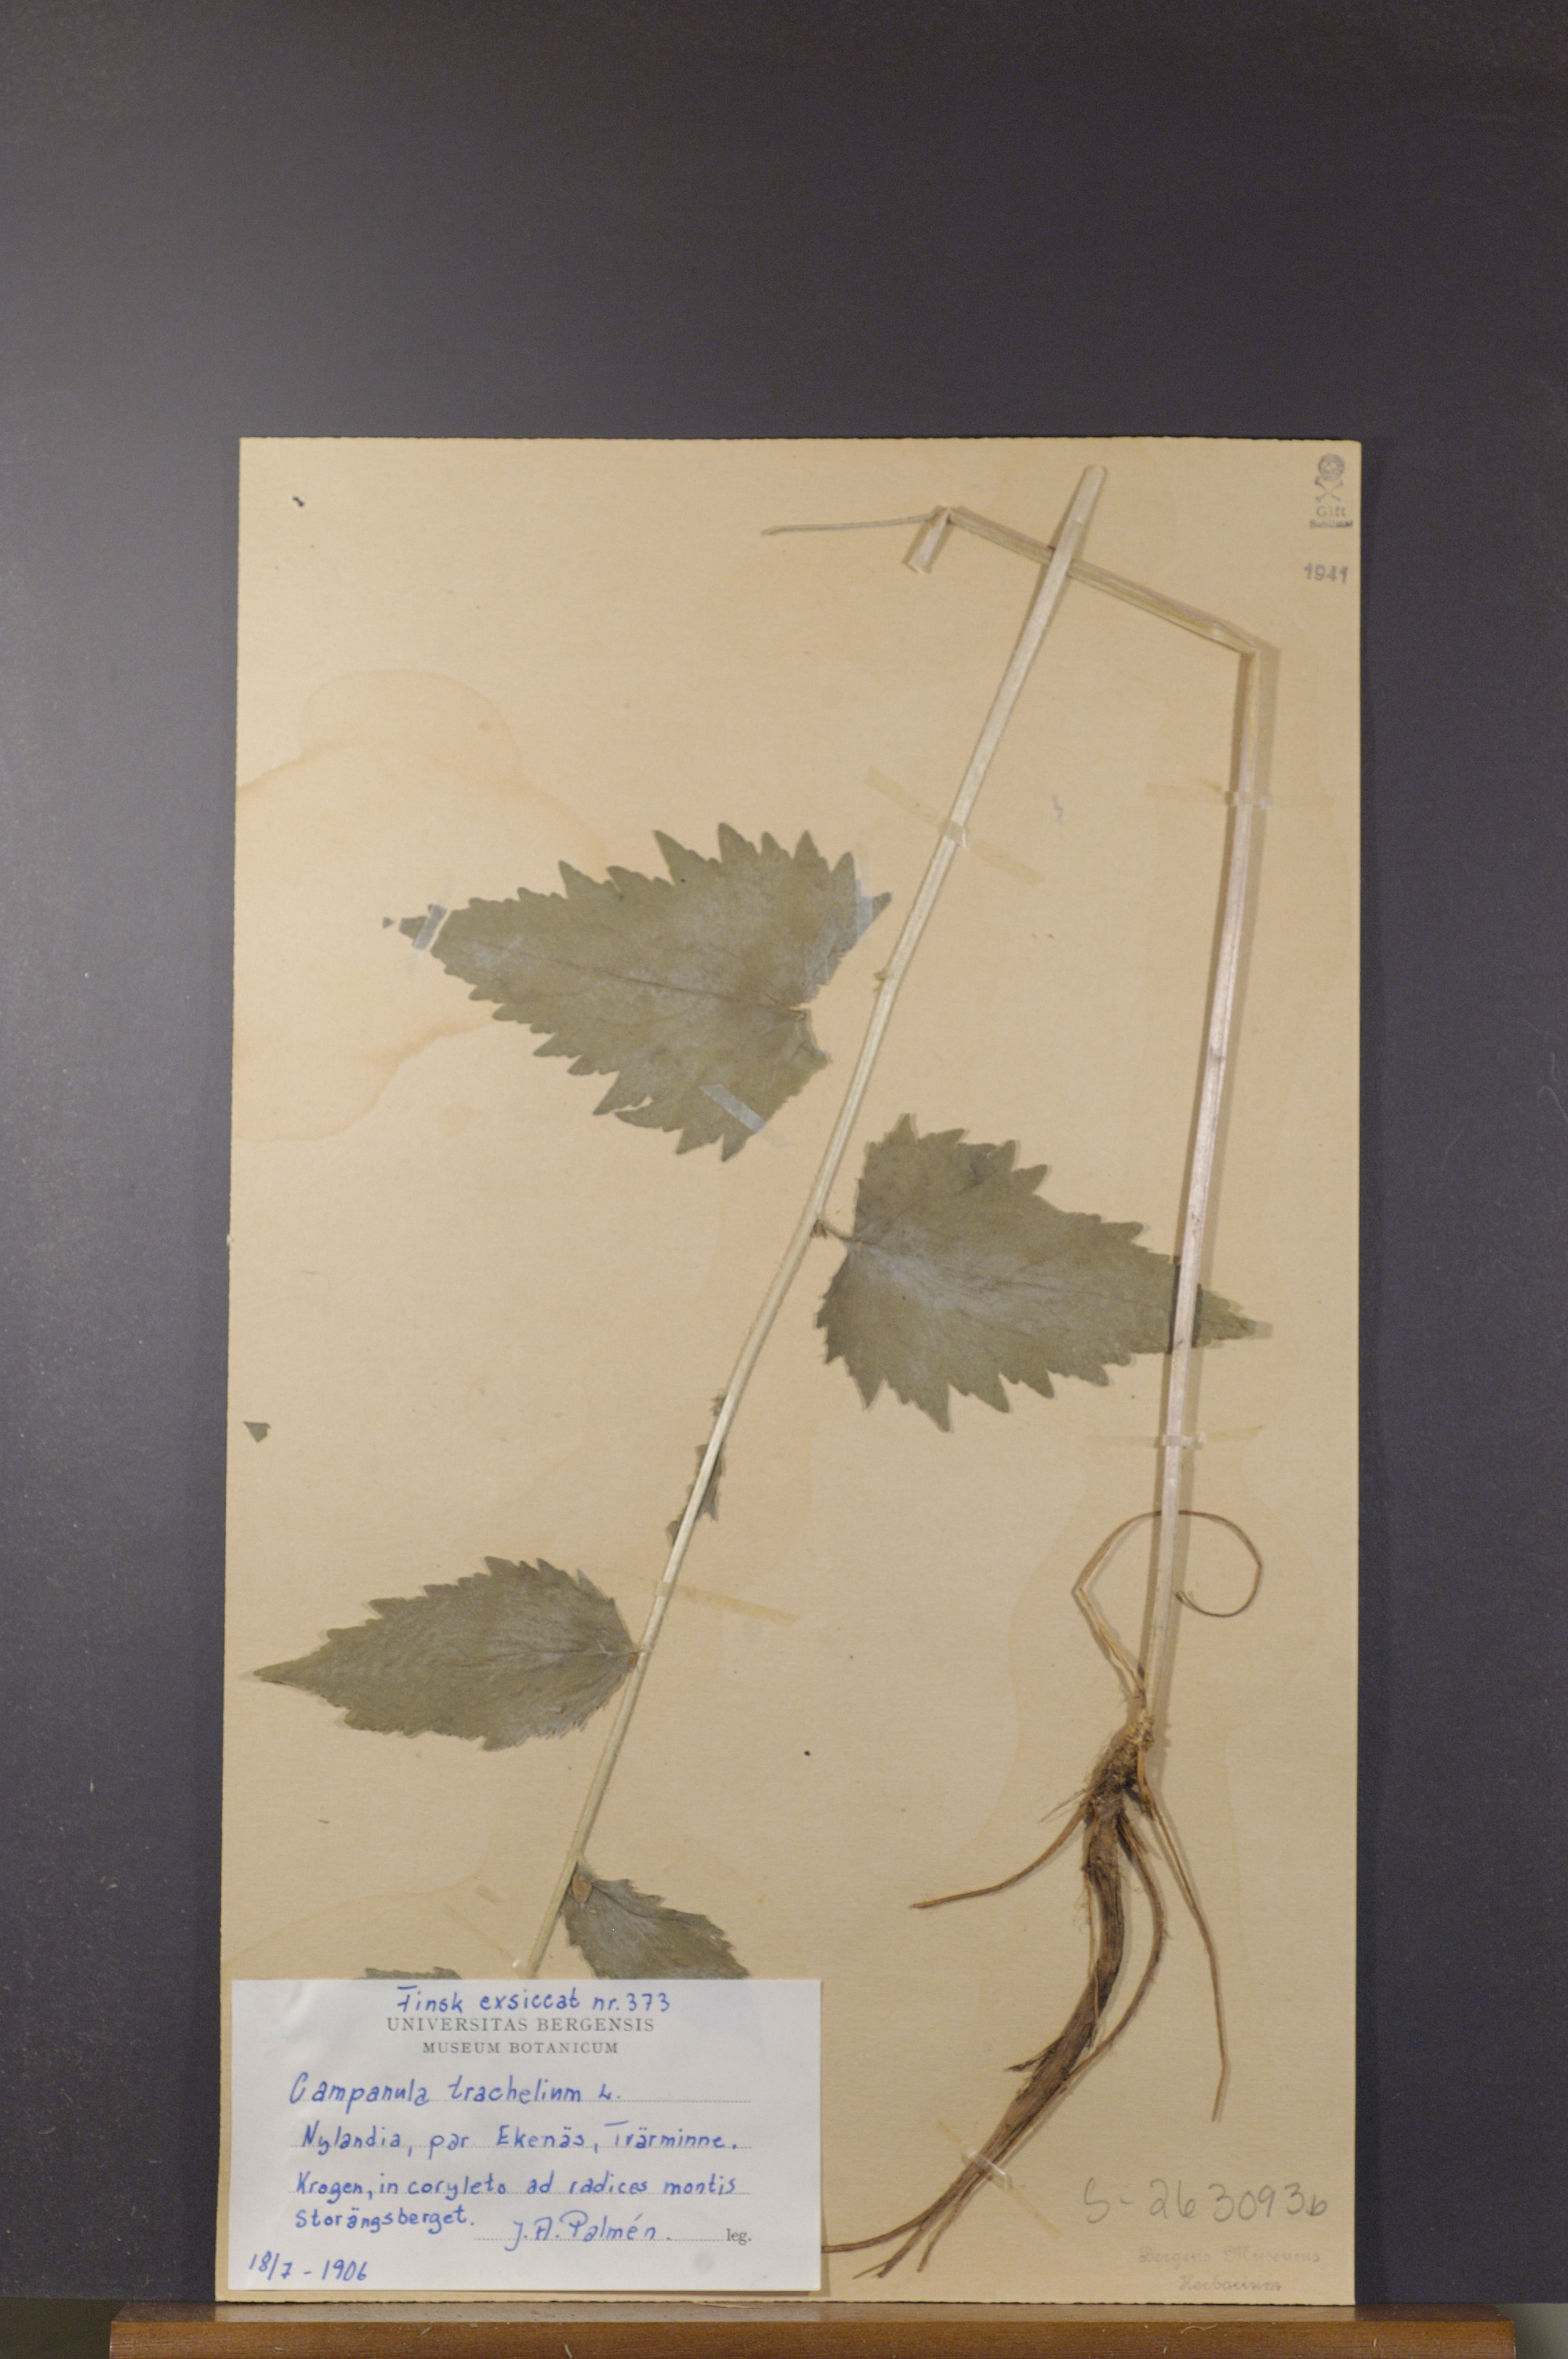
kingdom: Plantae
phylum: Tracheophyta
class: Magnoliopsida
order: Asterales
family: Campanulaceae
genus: Campanula
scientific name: Campanula trachelium
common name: Nettle-leaved bellflower
